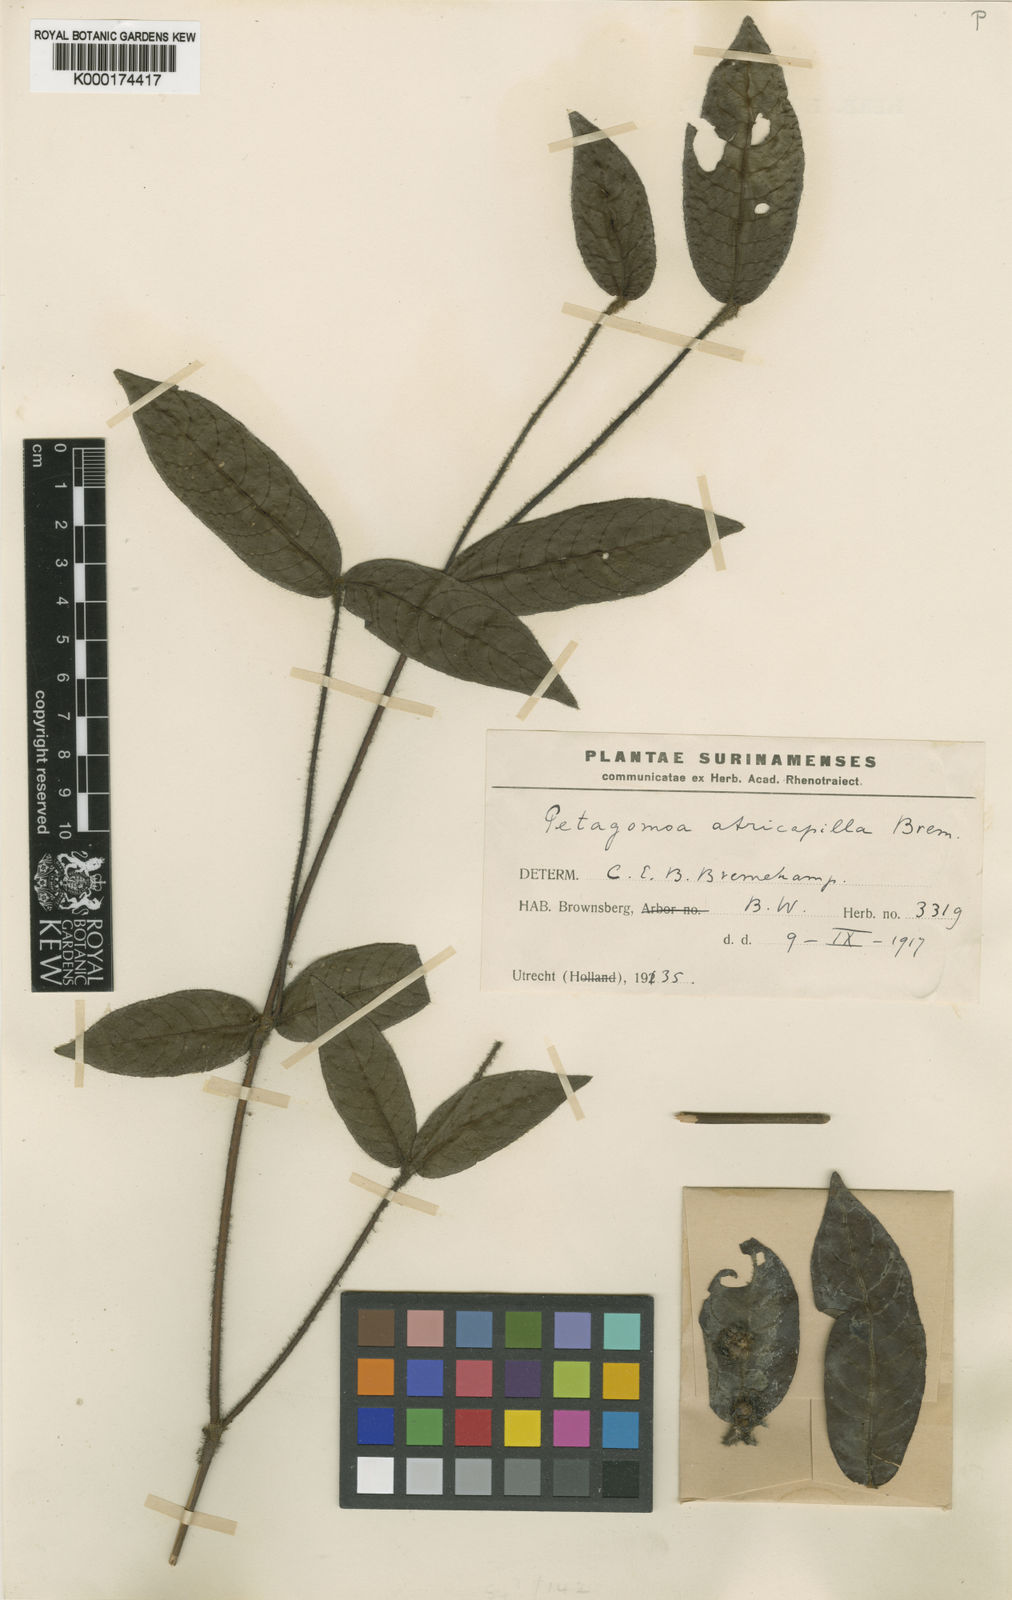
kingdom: Plantae
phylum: Tracheophyta
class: Magnoliopsida
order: Gentianales
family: Rubiaceae
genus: Psychotria
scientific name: Psychotria
